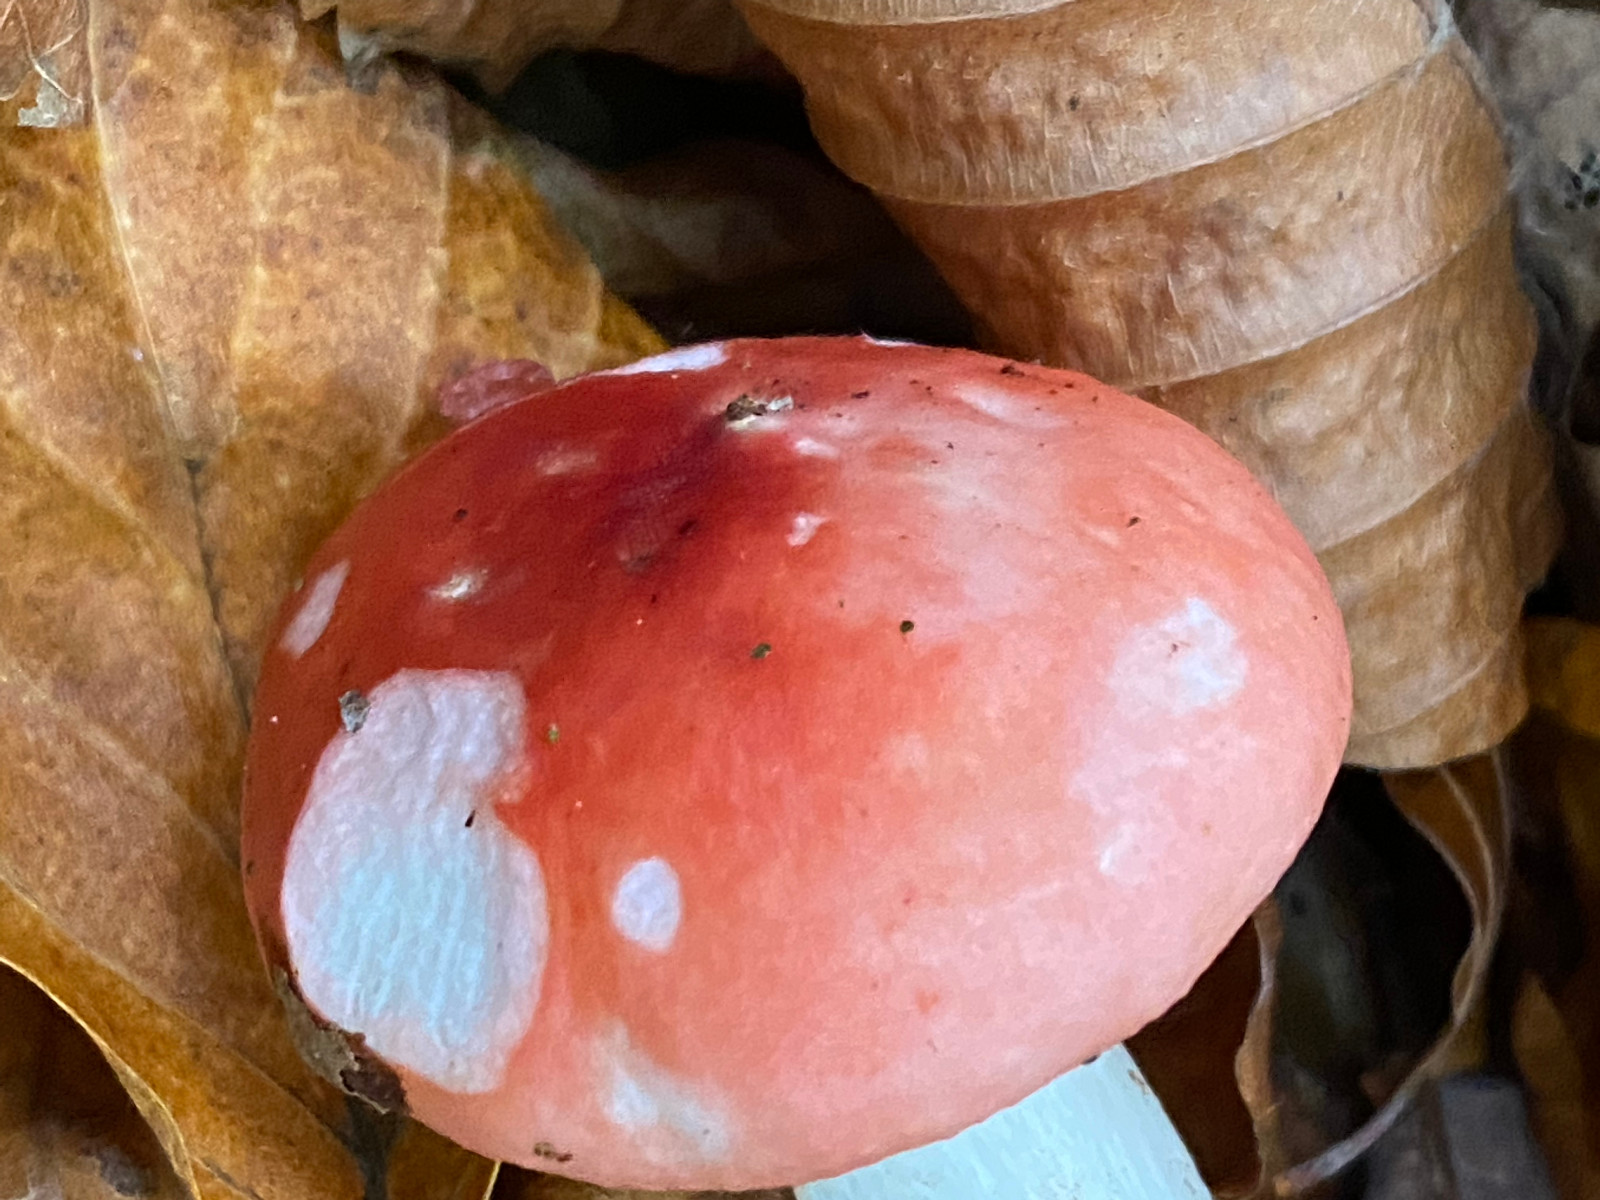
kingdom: Fungi
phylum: Basidiomycota
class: Agaricomycetes
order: Russulales
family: Russulaceae
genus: Russula
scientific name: Russula nobilis
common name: lille gift-skørhat
